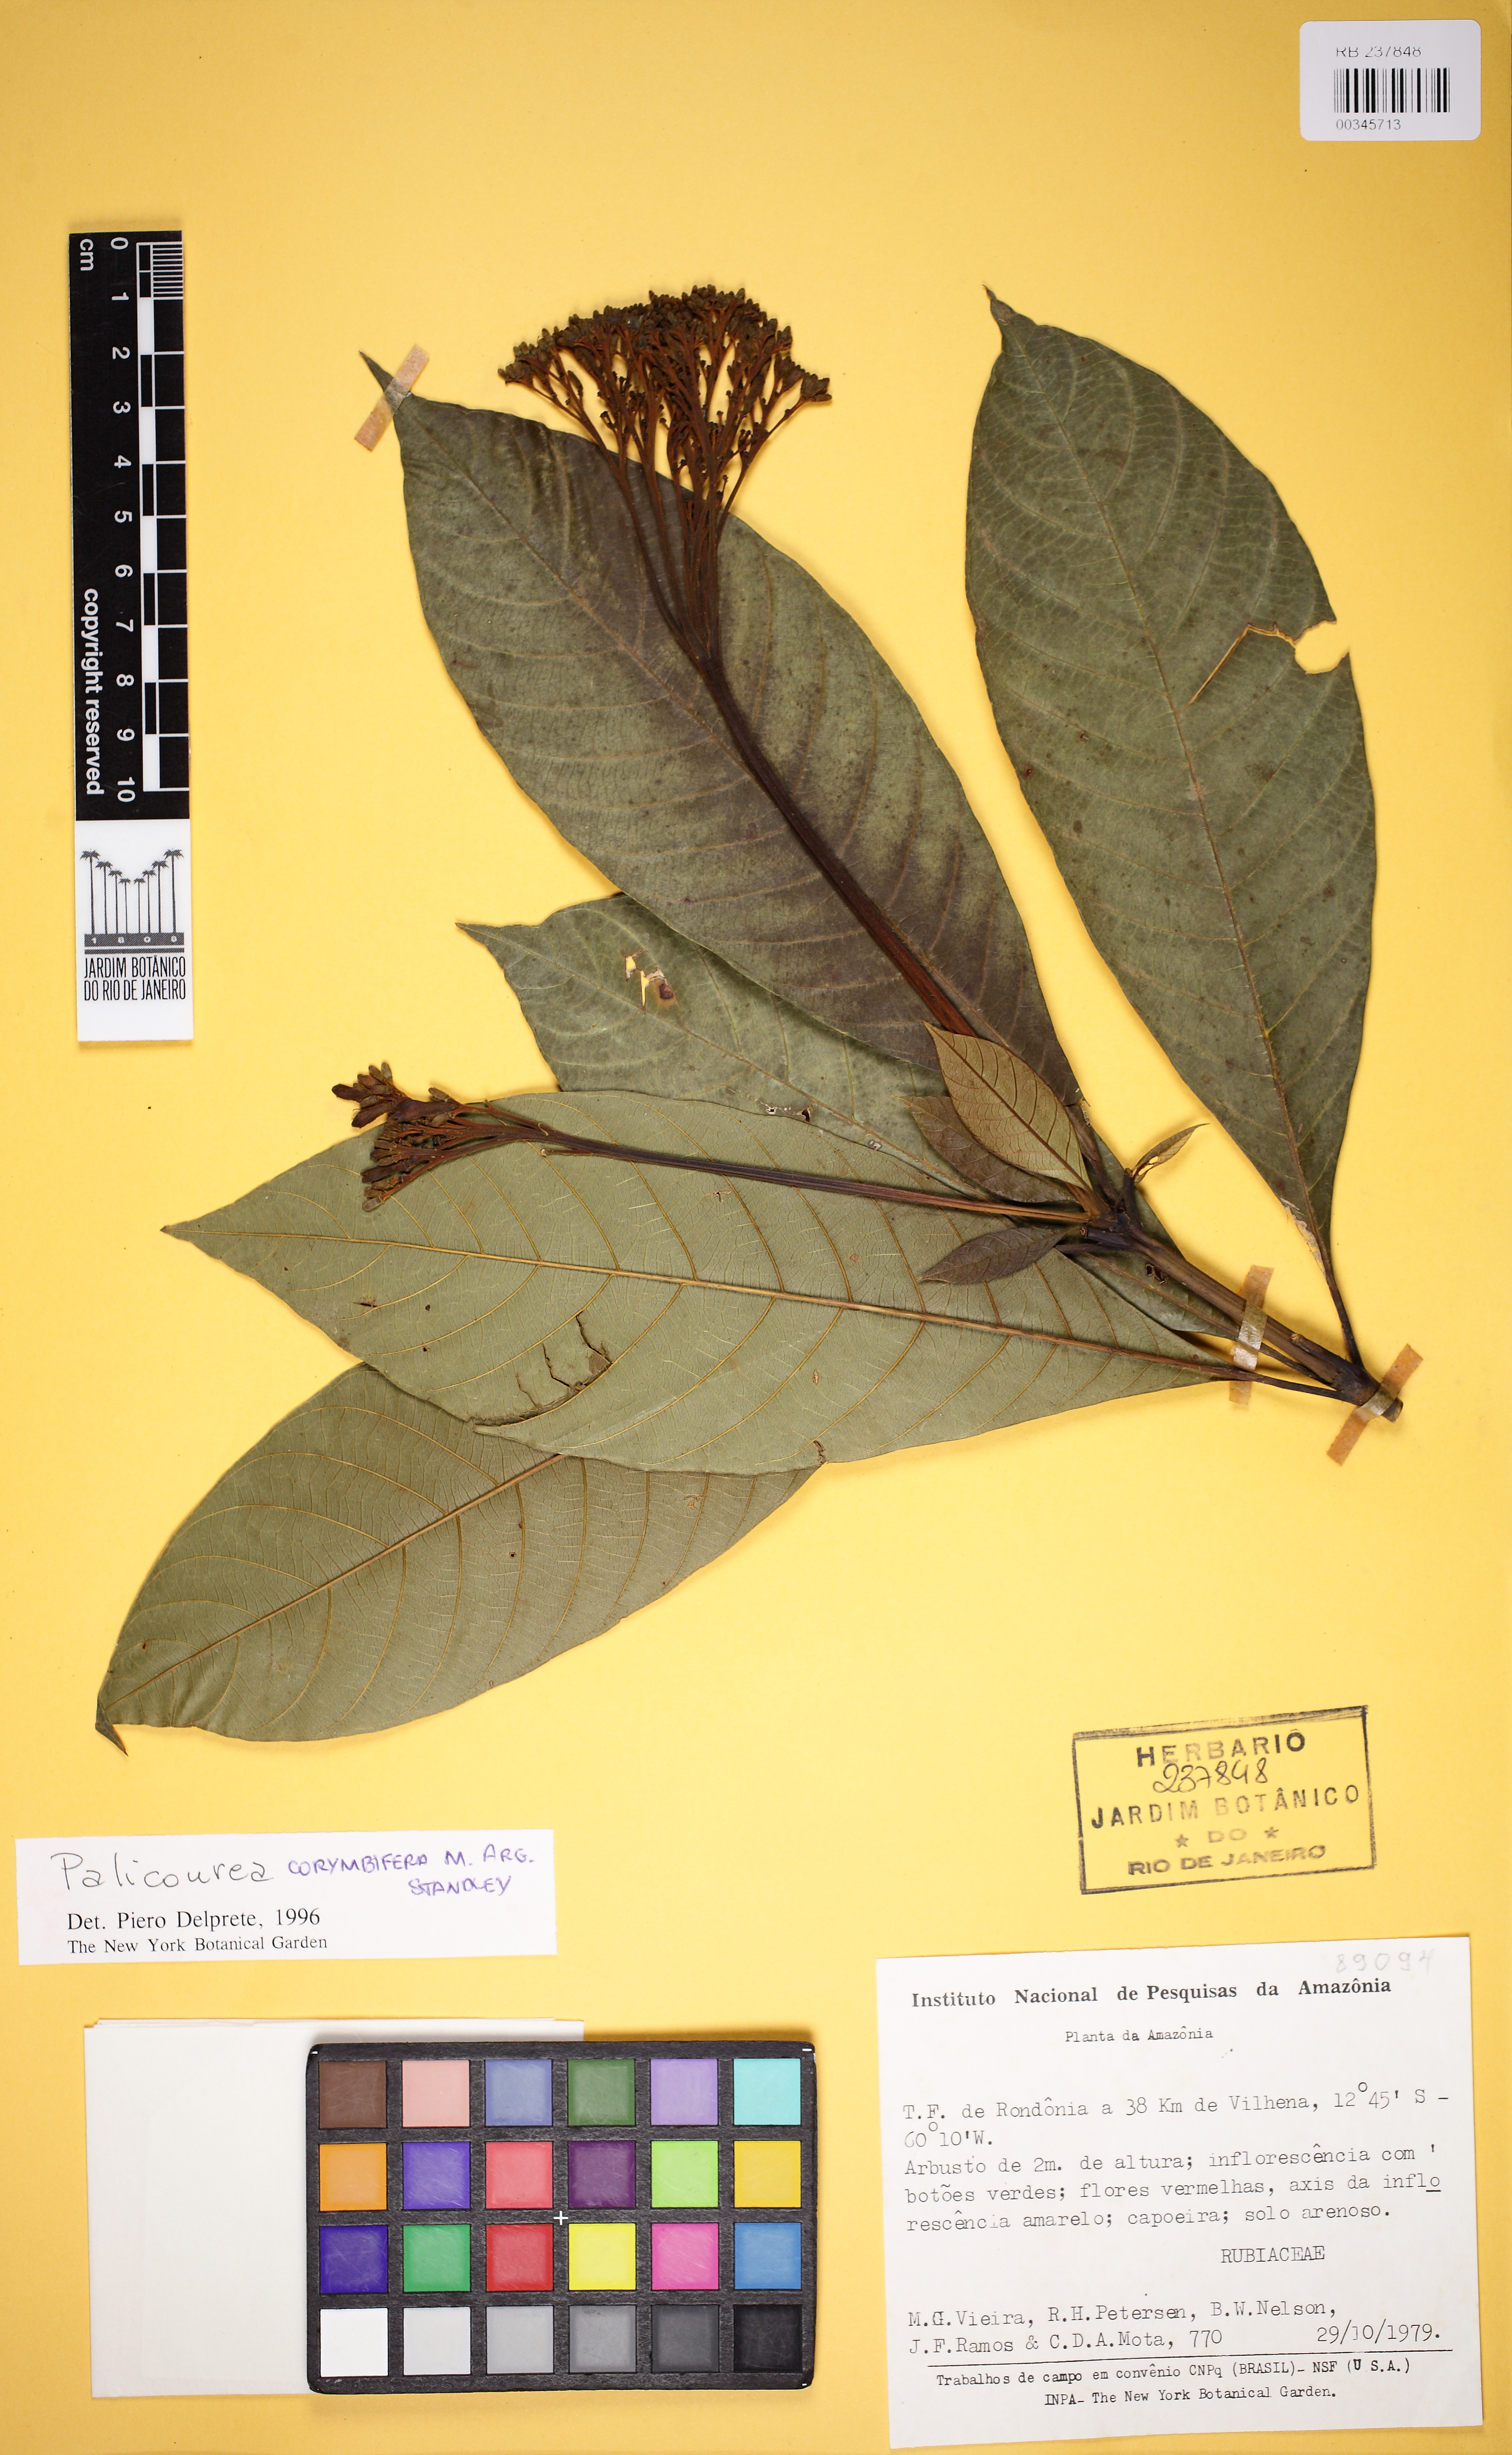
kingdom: Plantae
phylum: Tracheophyta
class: Magnoliopsida
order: Gentianales
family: Rubiaceae
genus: Palicourea
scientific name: Palicourea corymbifera
